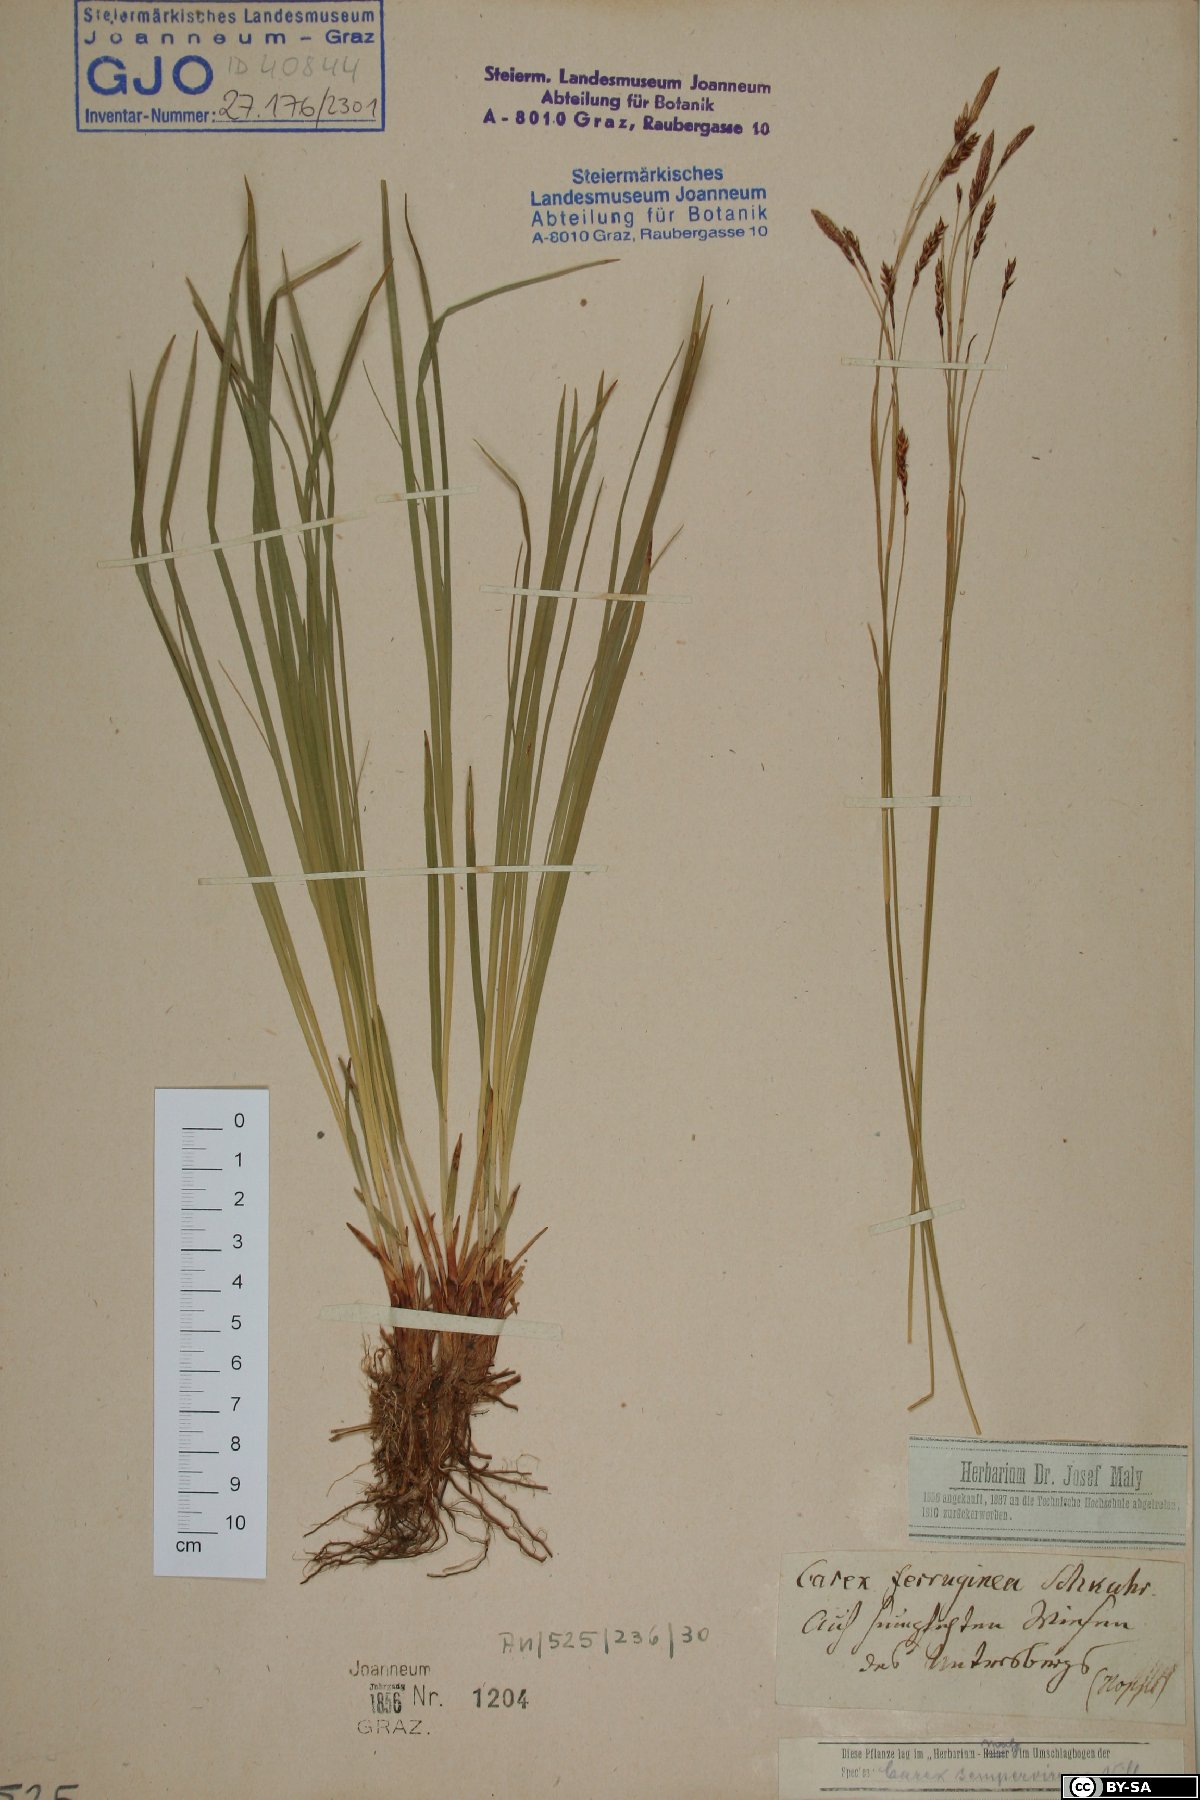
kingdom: Plantae
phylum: Tracheophyta
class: Liliopsida
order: Poales
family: Cyperaceae
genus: Carex
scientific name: Carex ferruginea
